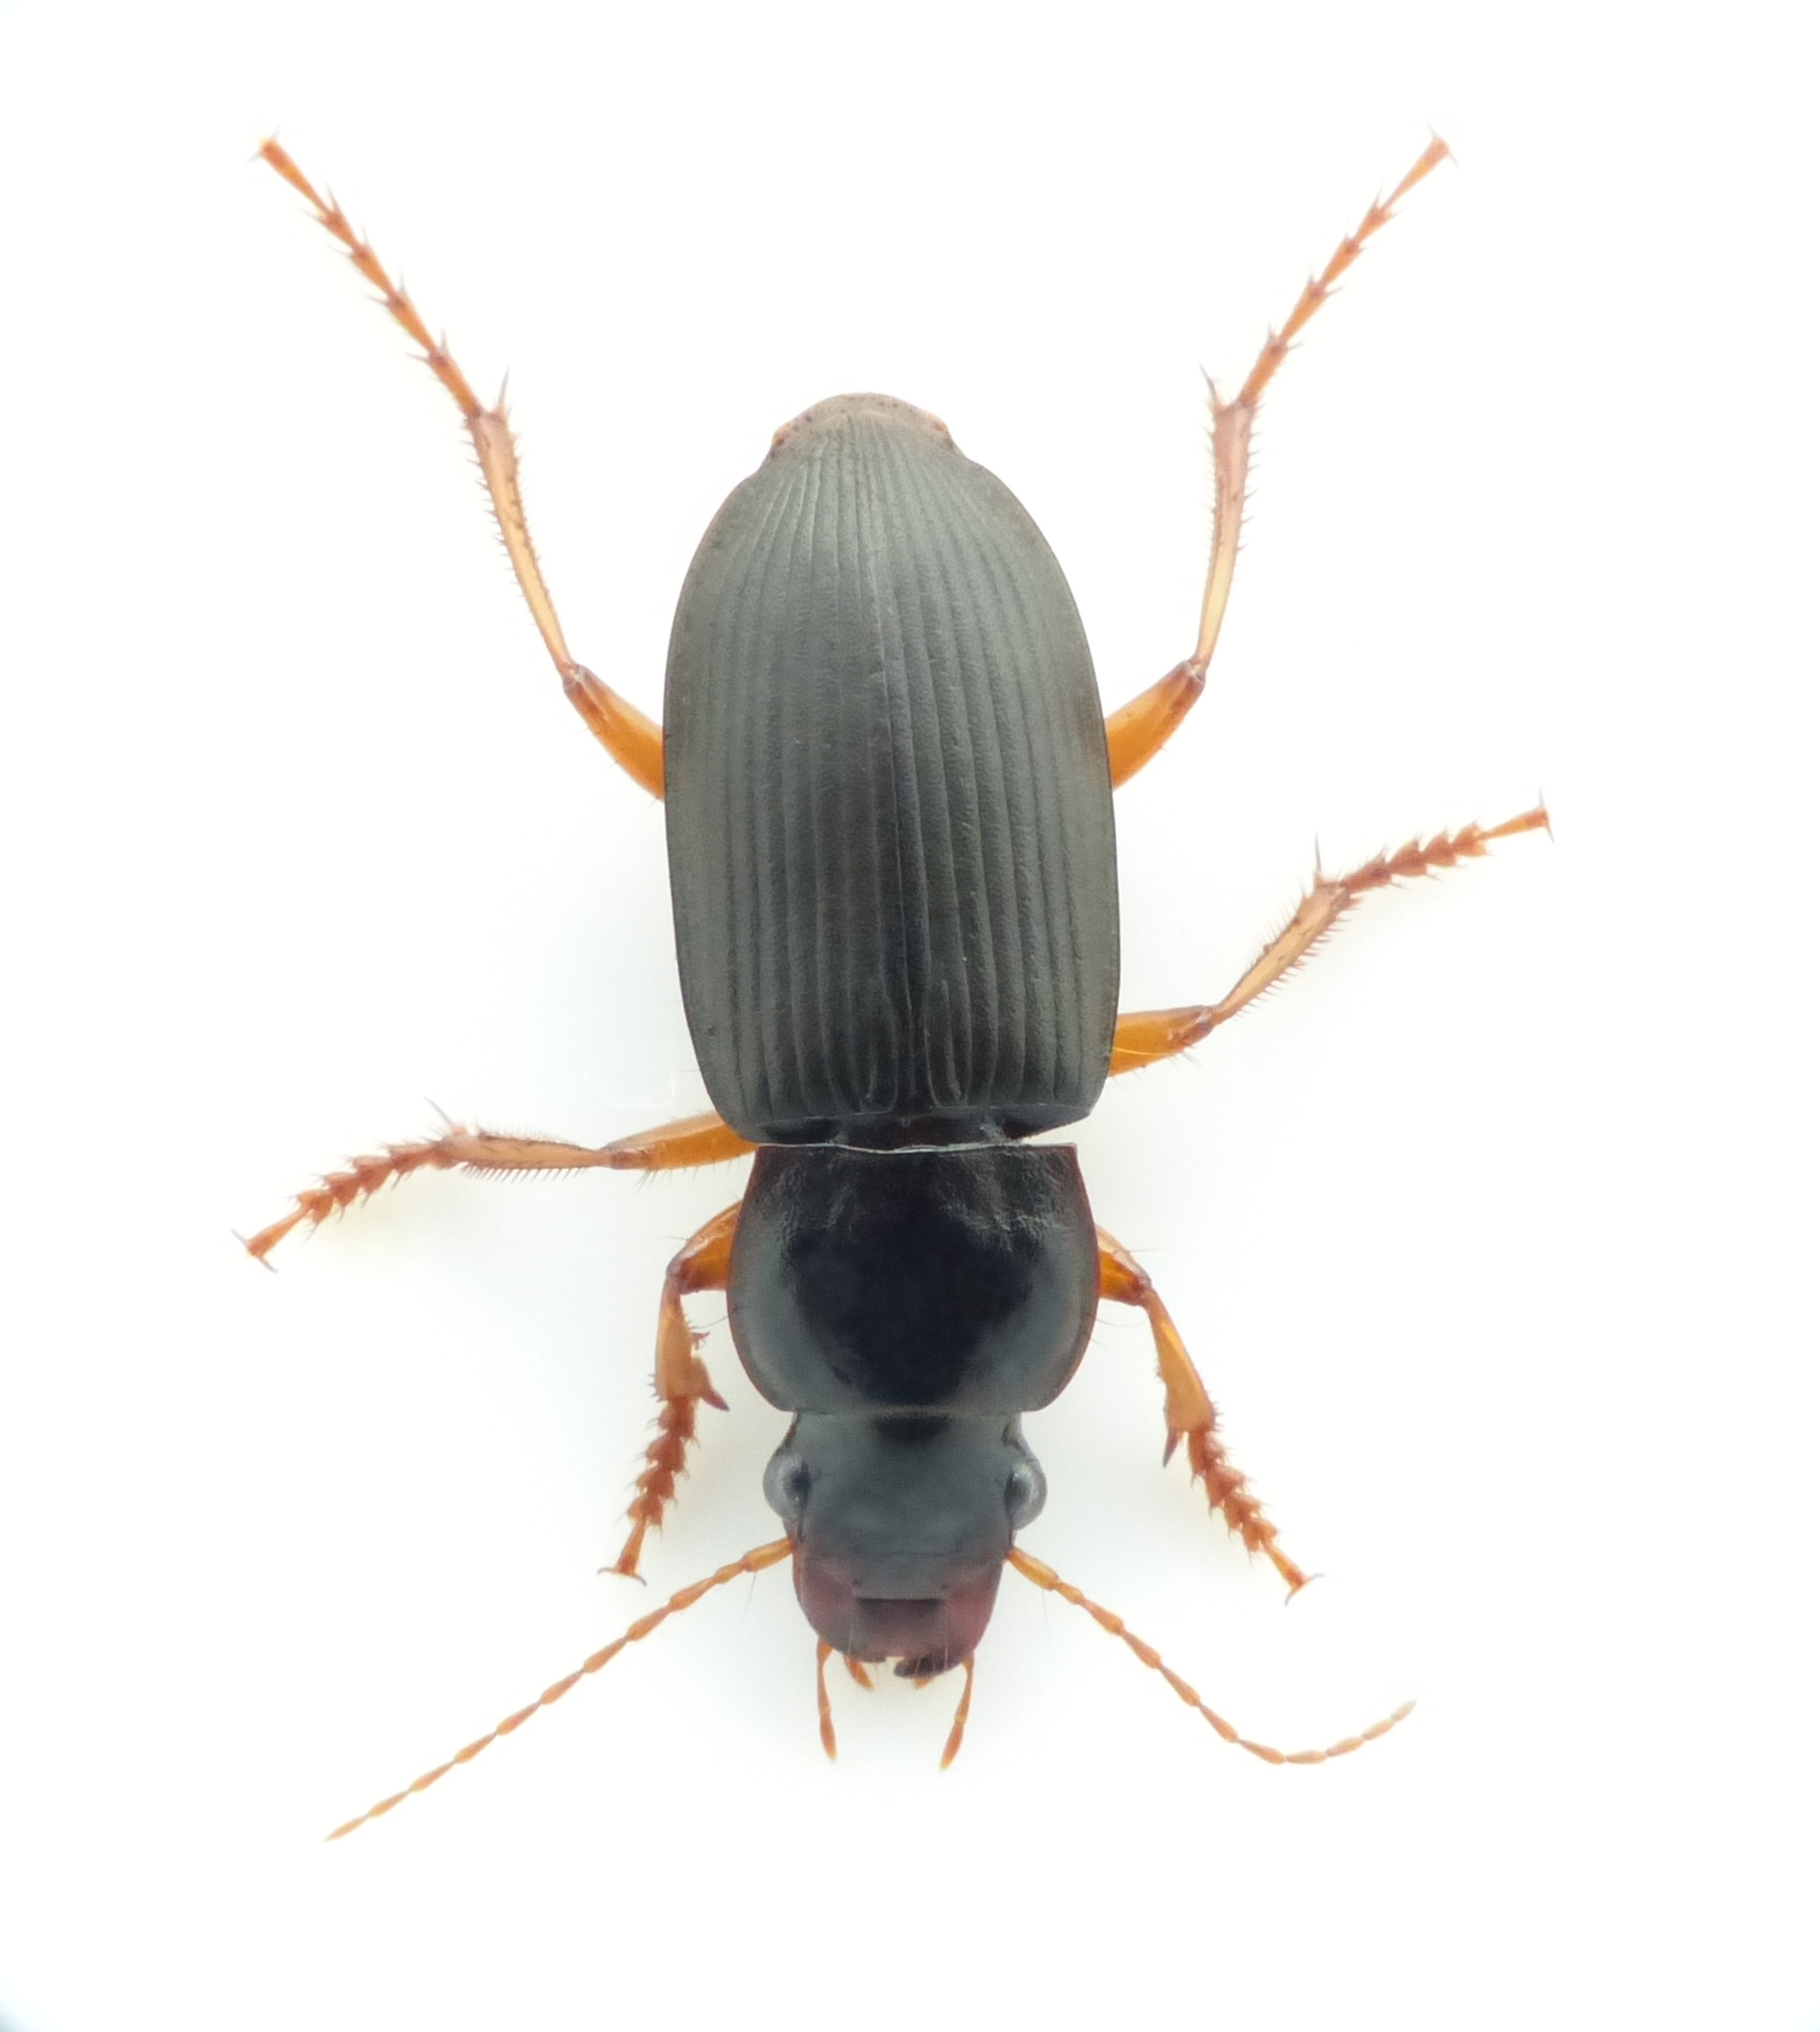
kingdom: Animalia
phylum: Arthropoda
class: Insecta
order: Coleoptera
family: Carabidae
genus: Harpalus
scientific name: Harpalus rufipes
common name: Håret markløber
